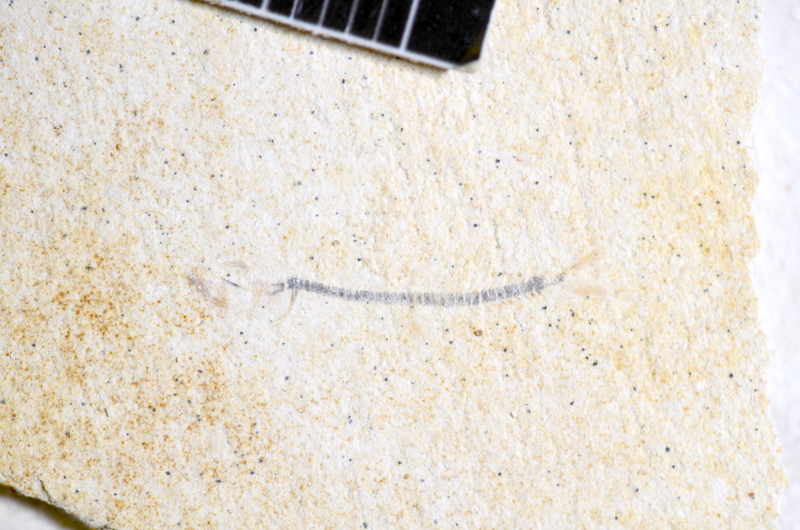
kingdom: Animalia
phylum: Chordata
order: Salmoniformes
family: Orthogonikleithridae
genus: Orthogonikleithrus
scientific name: Orthogonikleithrus hoelli
